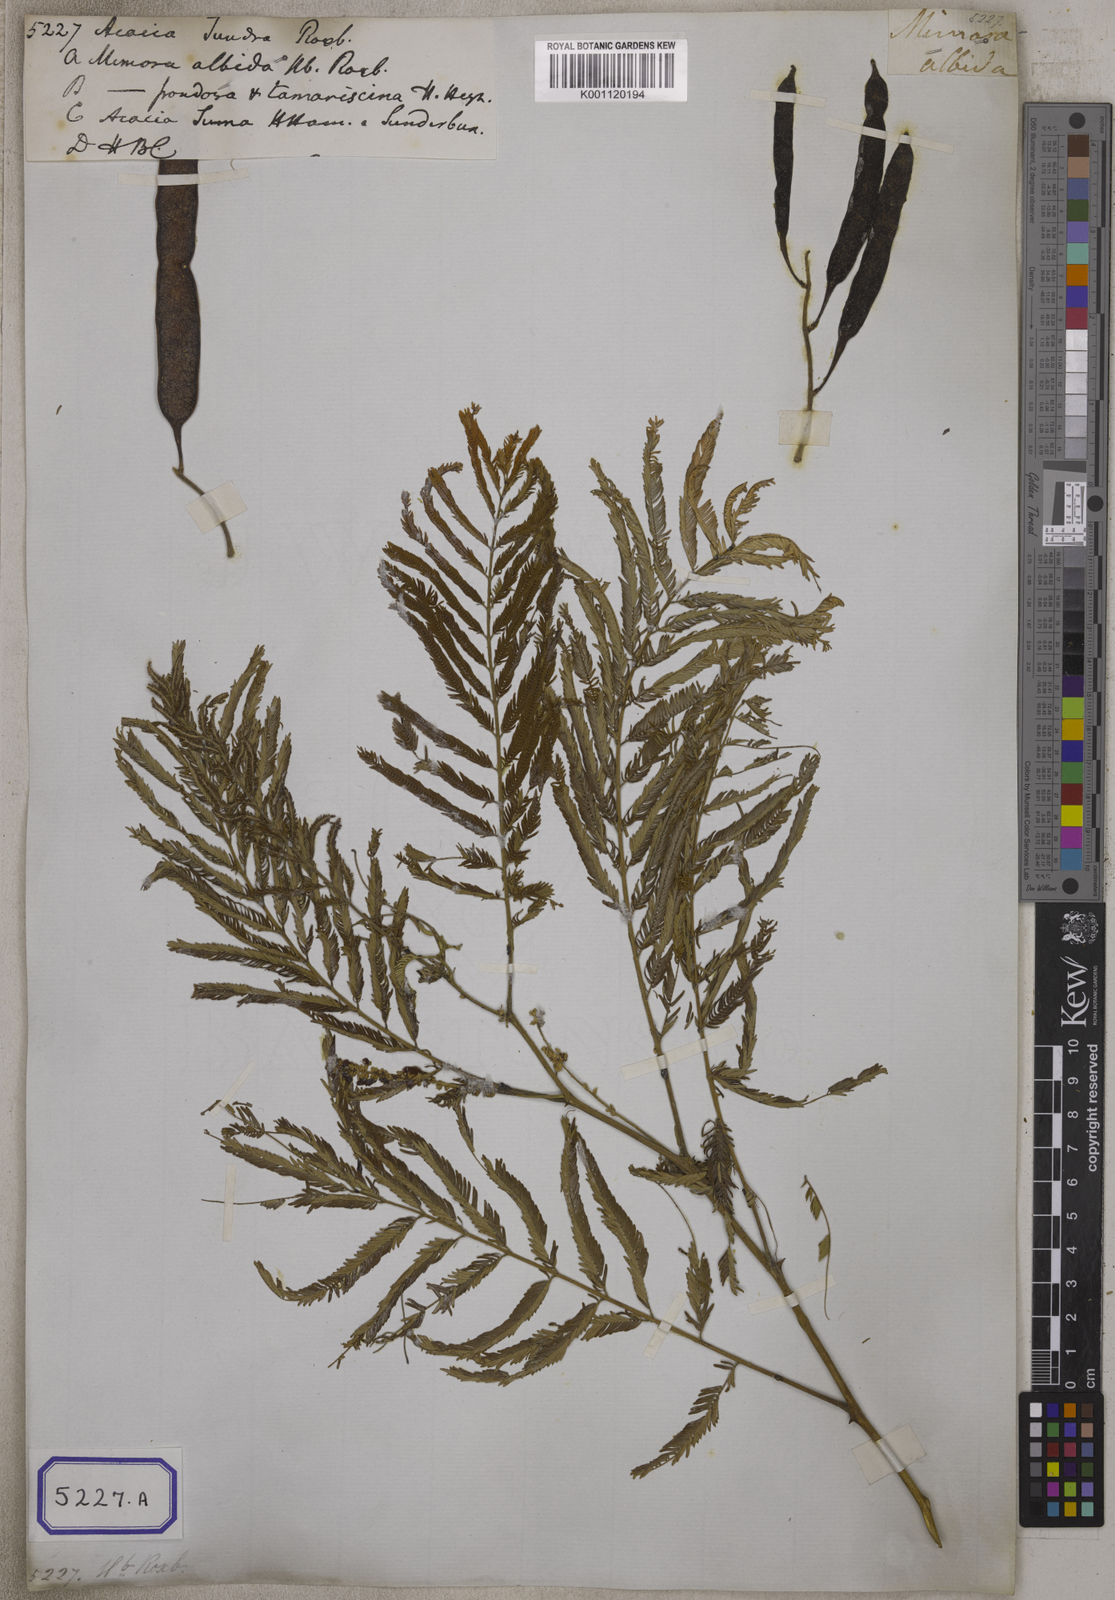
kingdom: Plantae
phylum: Tracheophyta
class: Magnoliopsida
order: Fabales
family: Fabaceae
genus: Senegalia
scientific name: Senegalia chundra
